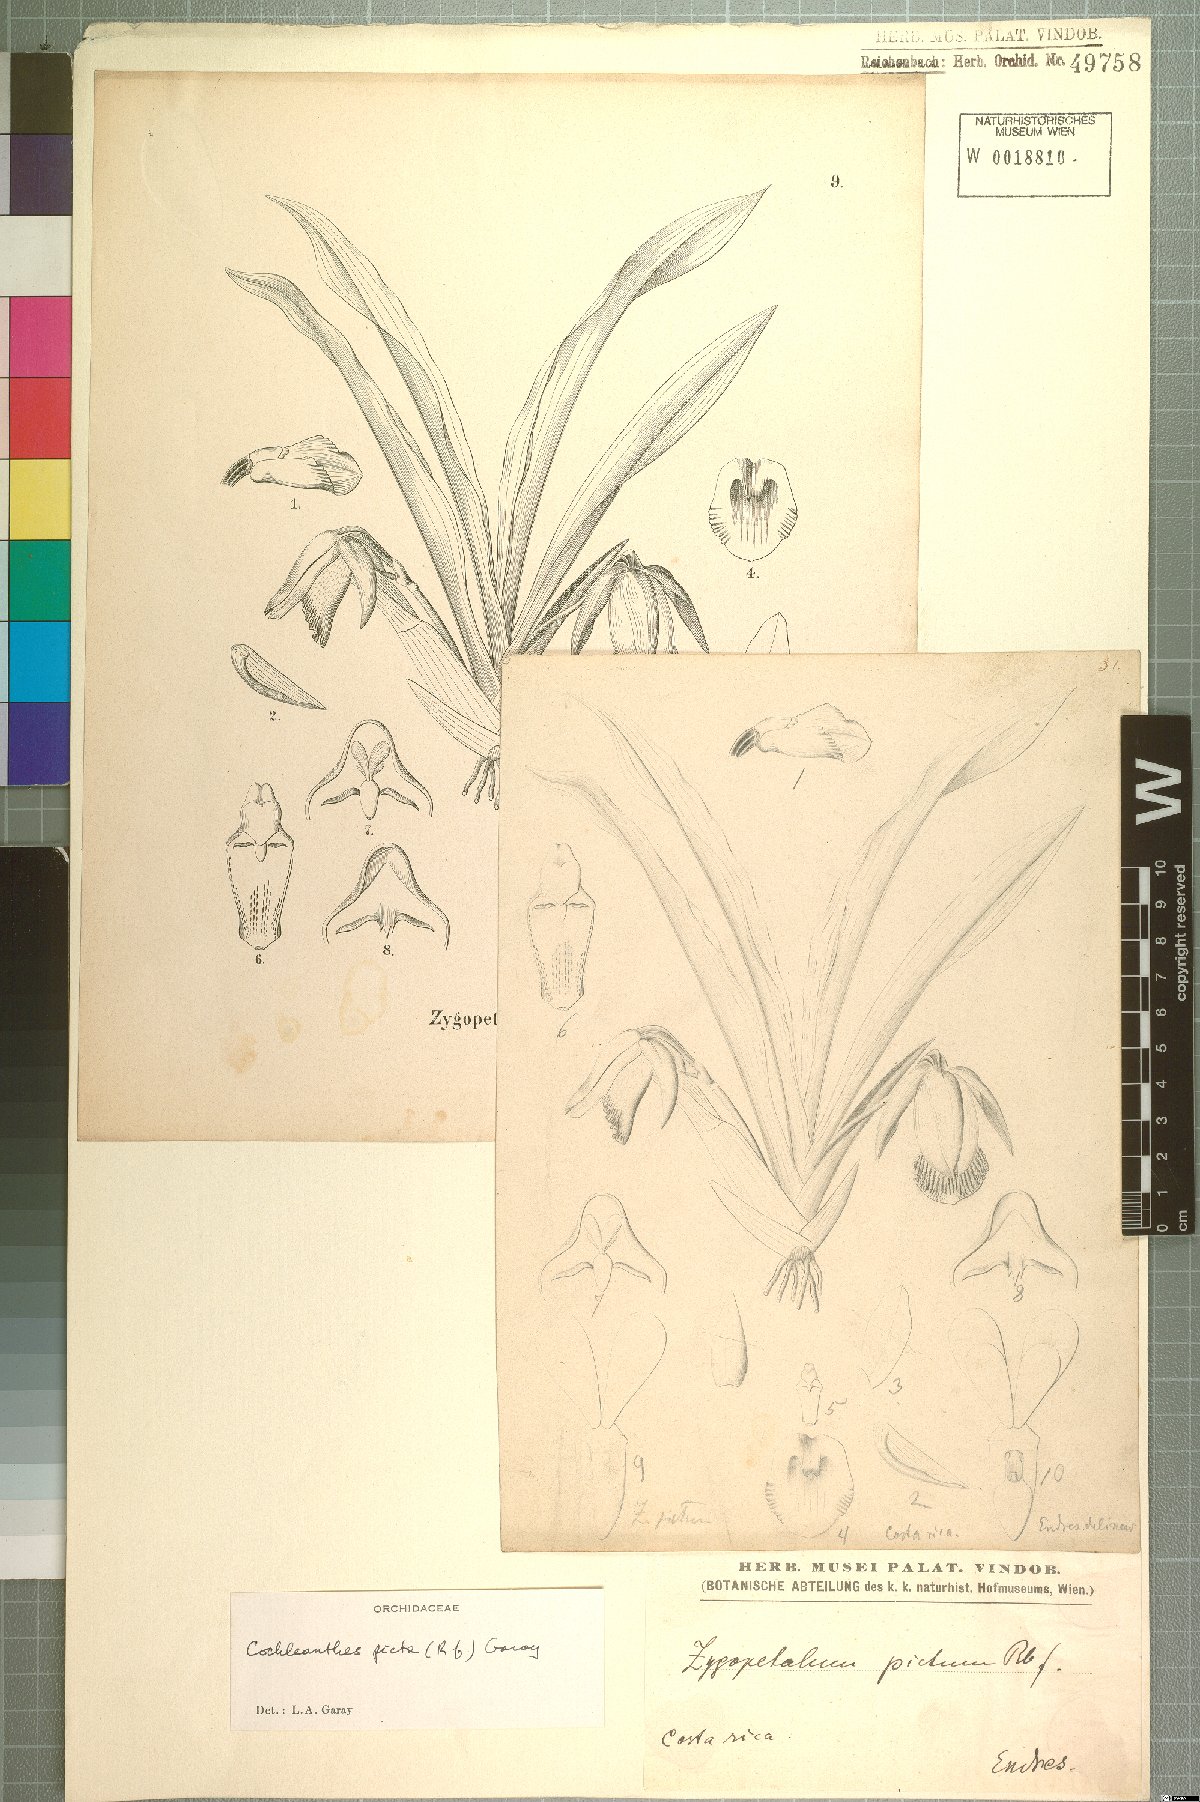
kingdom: Plantae
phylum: Tracheophyta
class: Liliopsida
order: Asparagales
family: Orchidaceae
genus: Stenotyla
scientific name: Stenotyla picta
